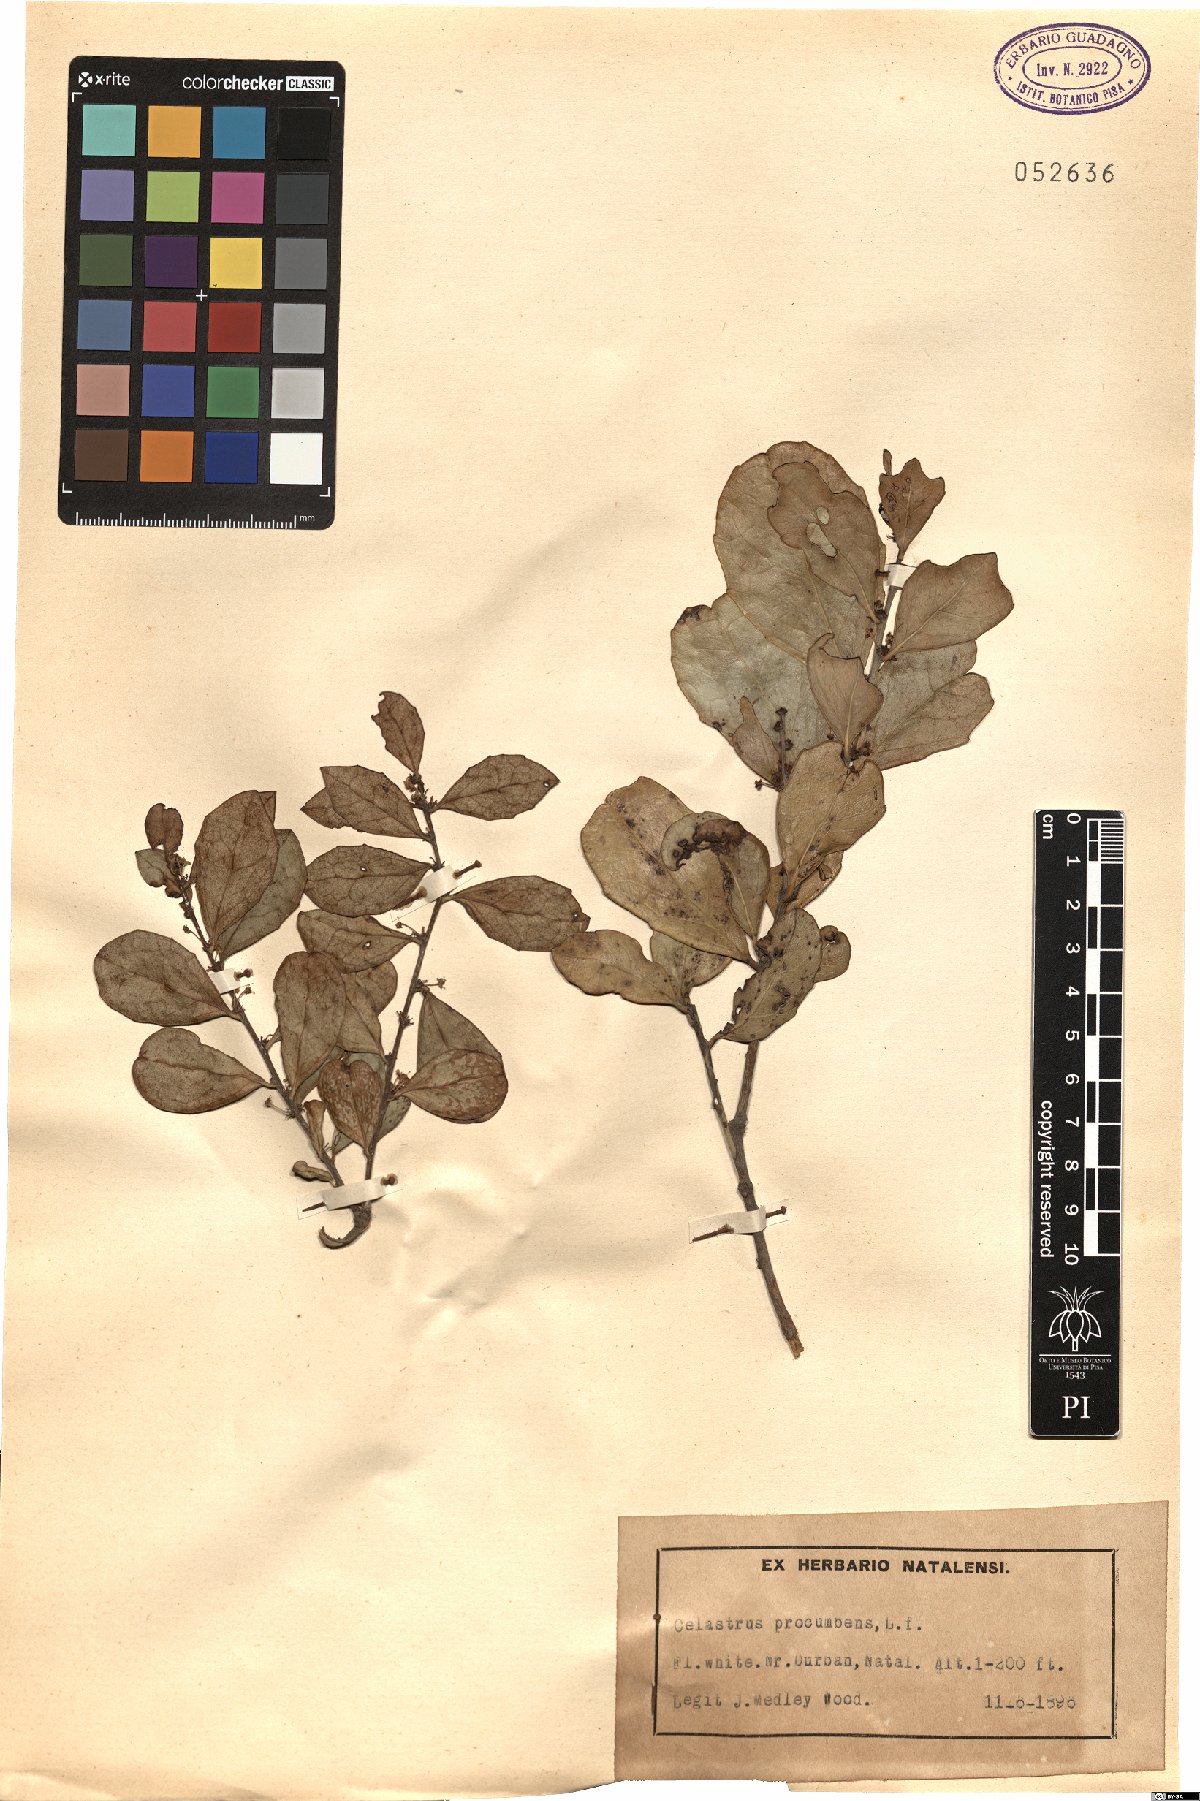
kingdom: Plantae
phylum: Tracheophyta
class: Magnoliopsida
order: Celastrales
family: Celastraceae
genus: Gymnosporia
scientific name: Gymnosporia procumbens
